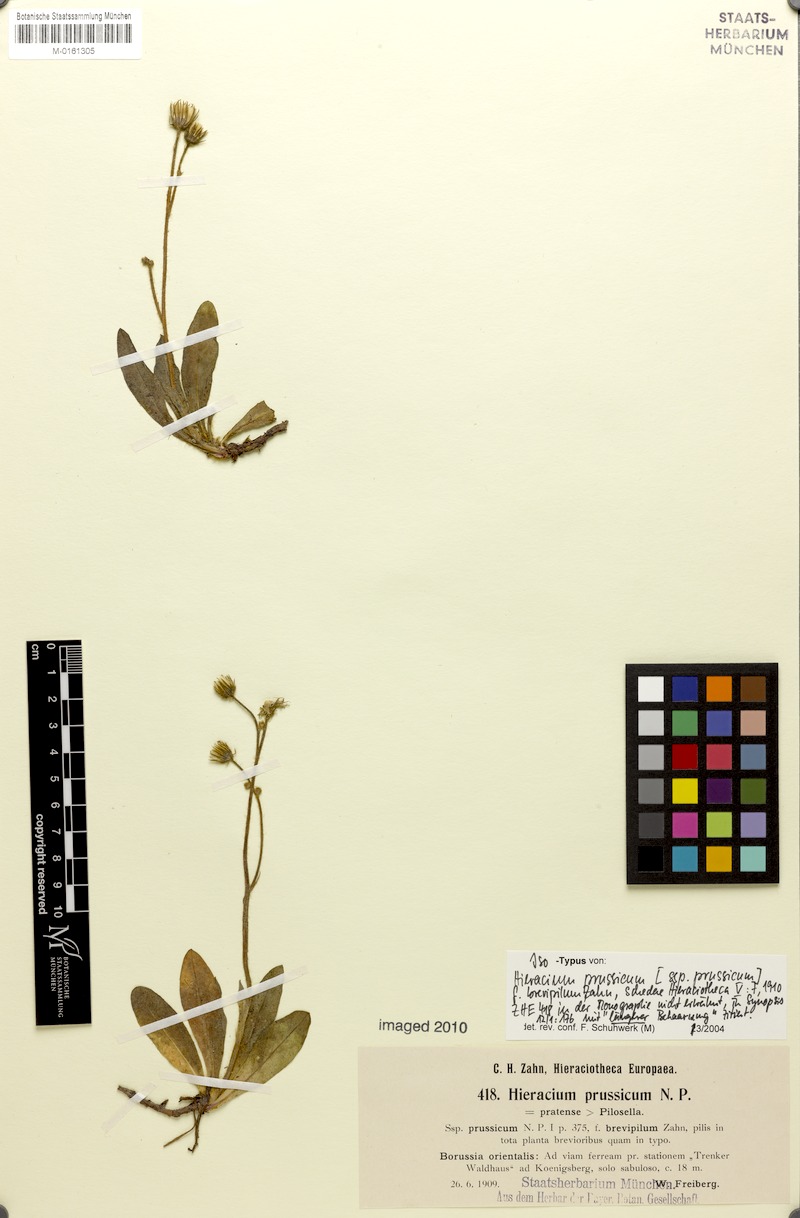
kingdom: Plantae
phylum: Tracheophyta
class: Magnoliopsida
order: Asterales
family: Asteraceae
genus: Pilosella
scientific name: Pilosella prussica
